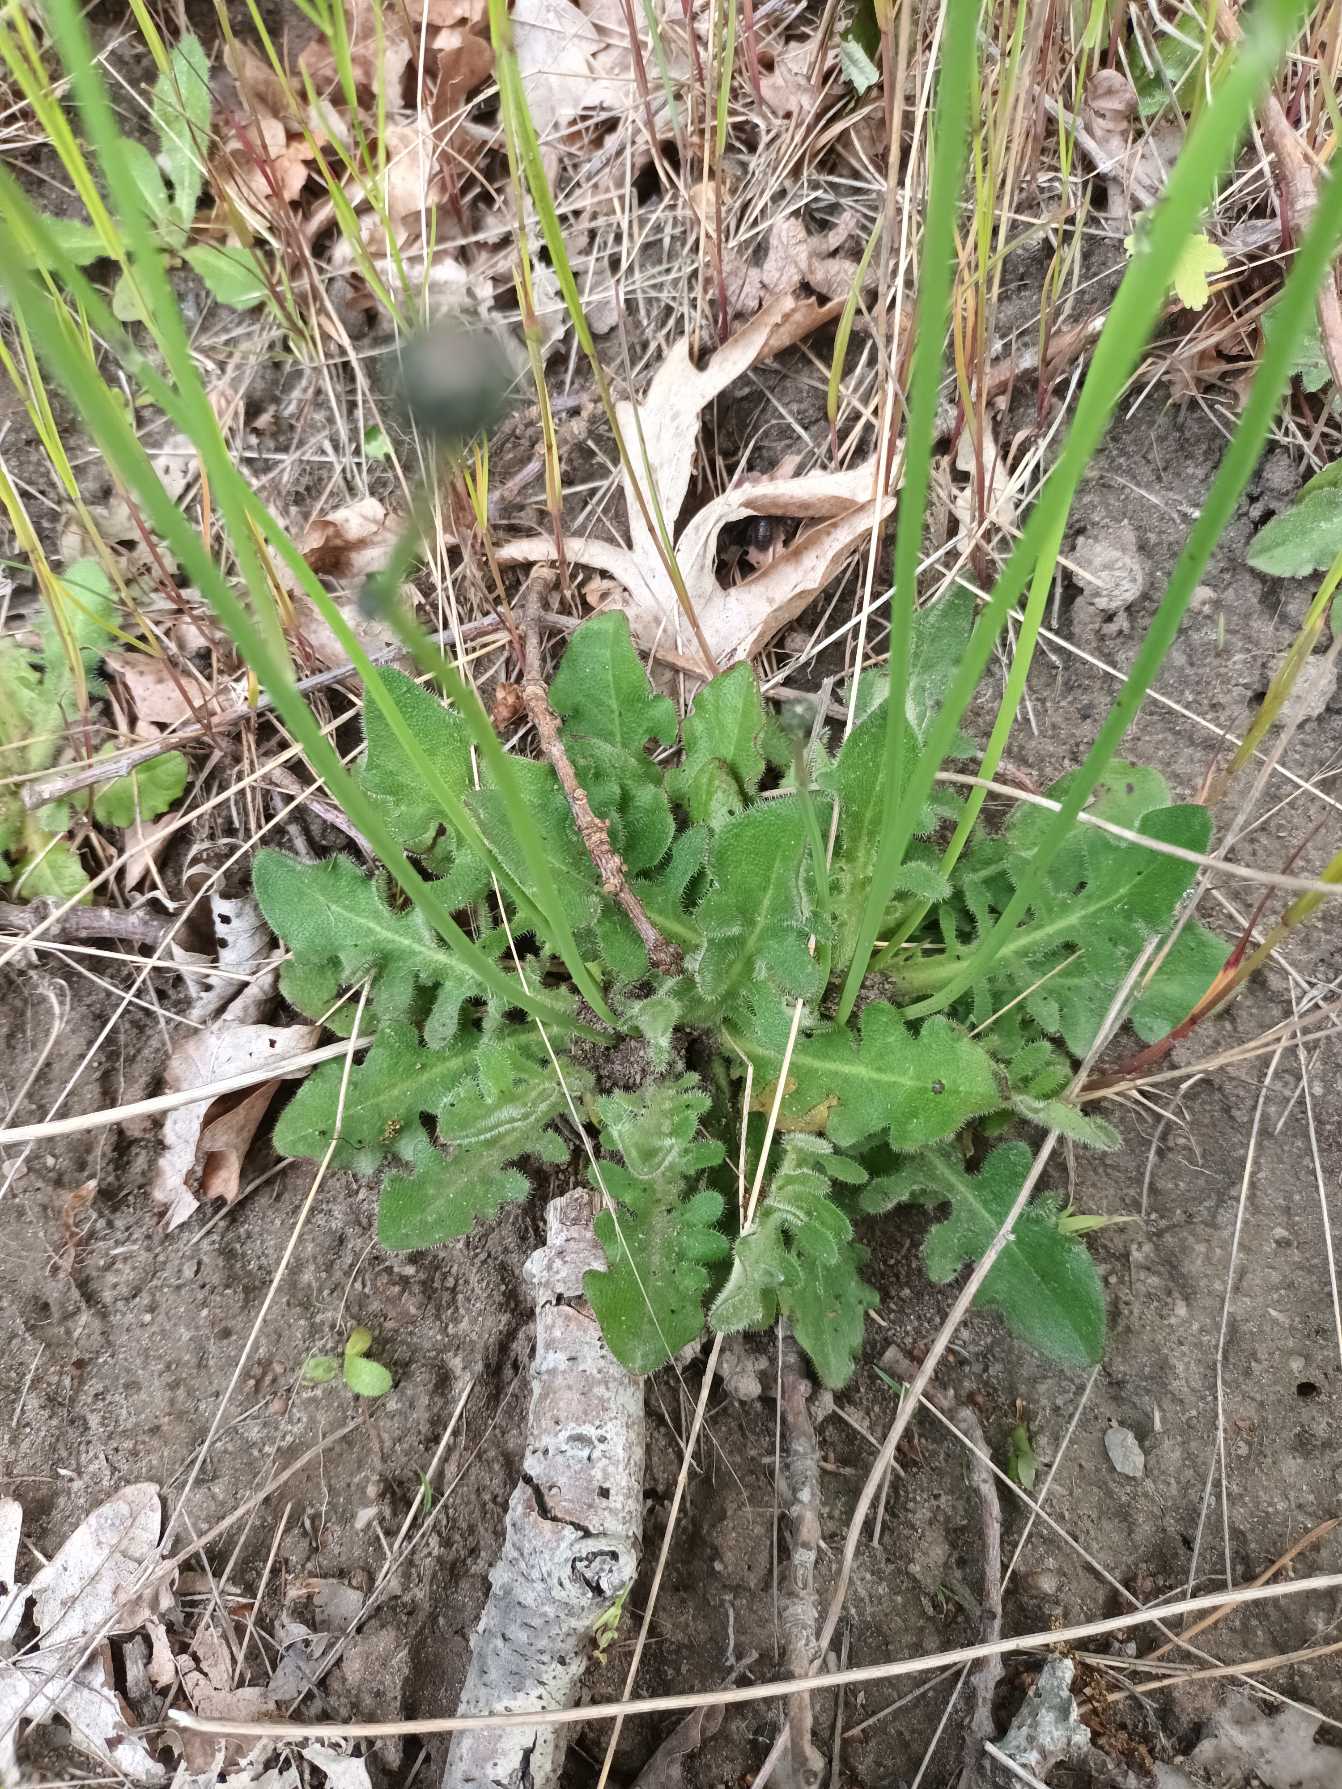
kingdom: Plantae
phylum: Tracheophyta
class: Magnoliopsida
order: Asterales
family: Asteraceae
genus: Hypochaeris
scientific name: Hypochaeris radicata
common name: Almindelig kongepen
